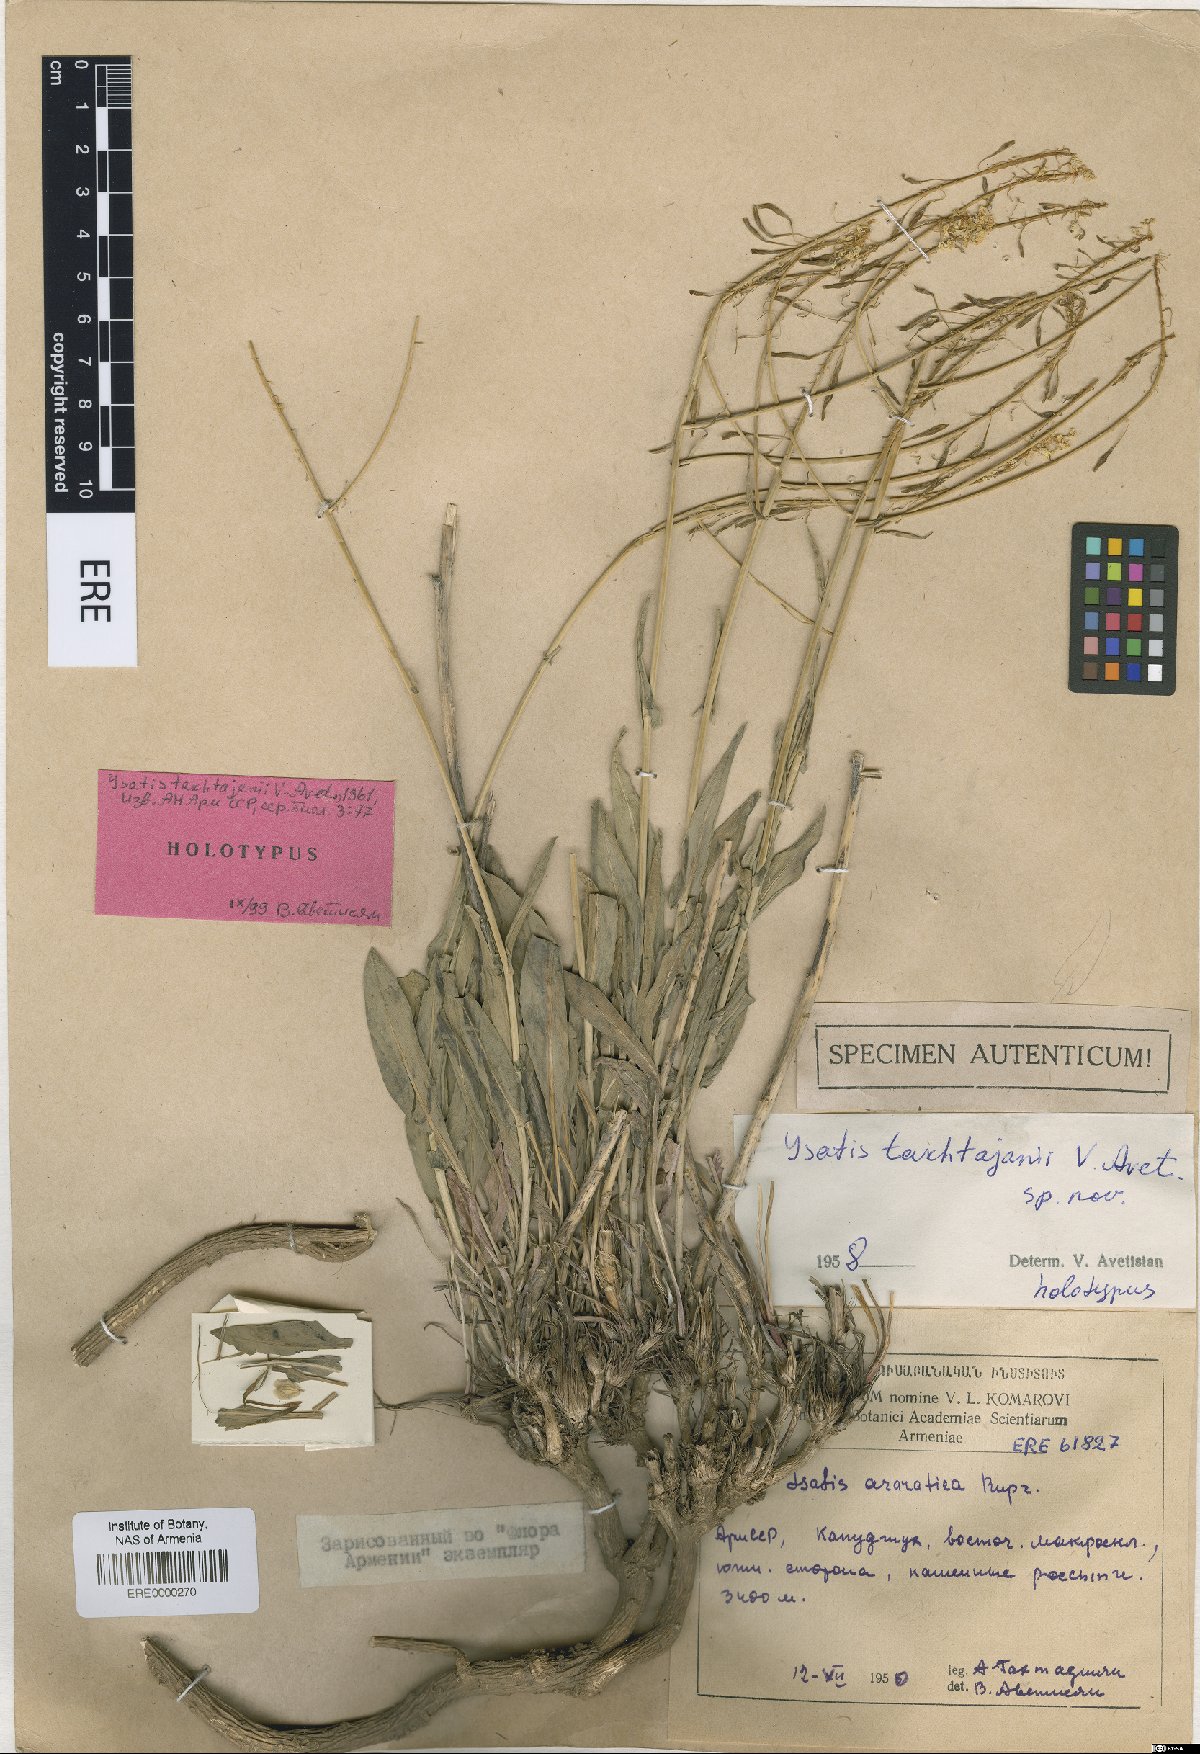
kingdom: Plantae
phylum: Tracheophyta
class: Magnoliopsida
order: Brassicales
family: Brassicaceae
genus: Isatis
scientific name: Isatis takhtajanii
